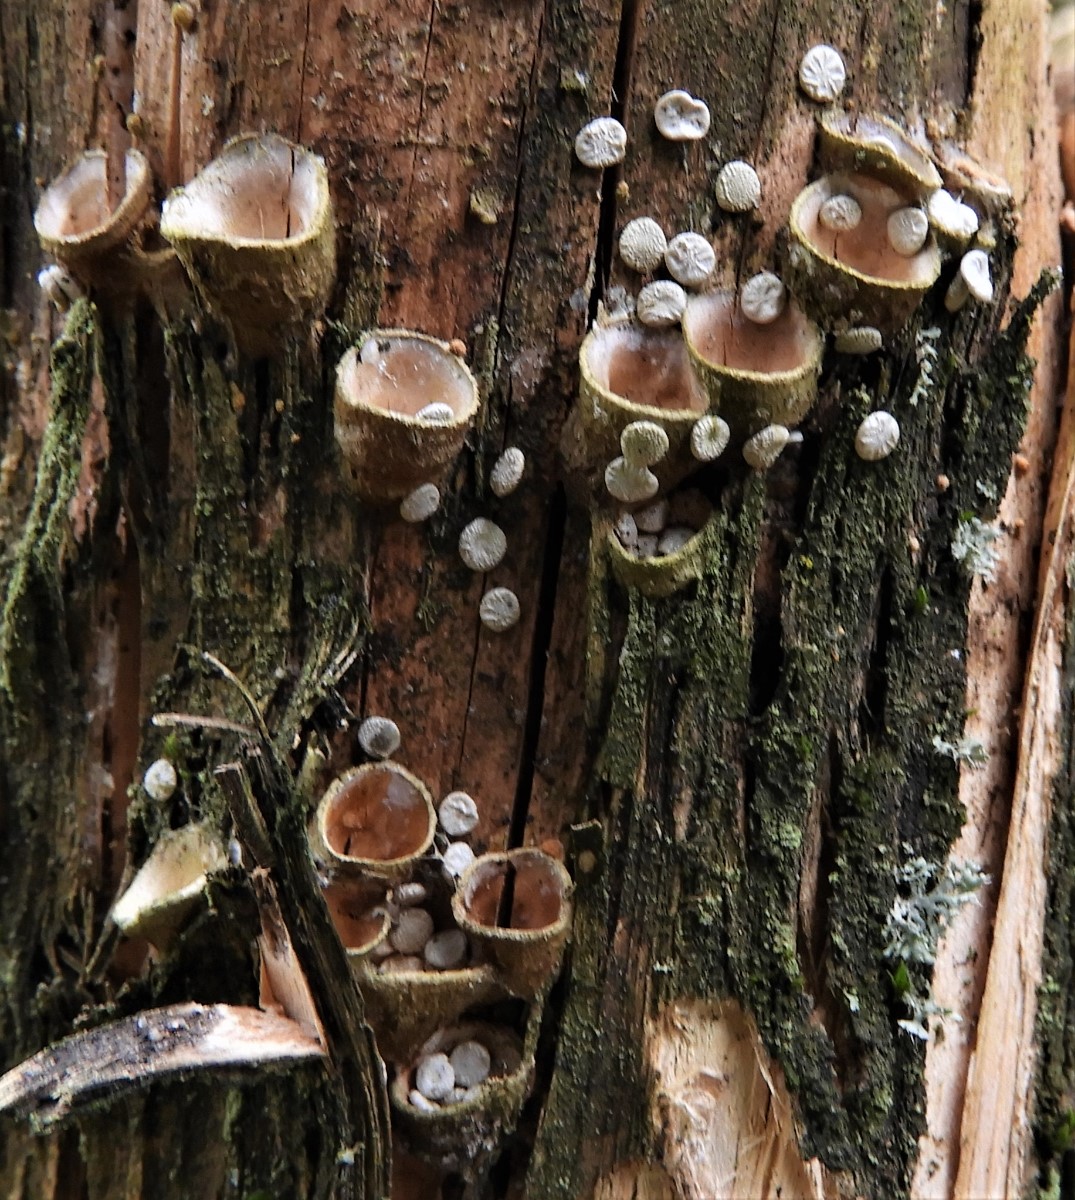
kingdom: Fungi
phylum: Basidiomycota
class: Agaricomycetes
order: Agaricales
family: Nidulariaceae
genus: Crucibulum
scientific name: Crucibulum crucibuliforme
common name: krukkesvamp
